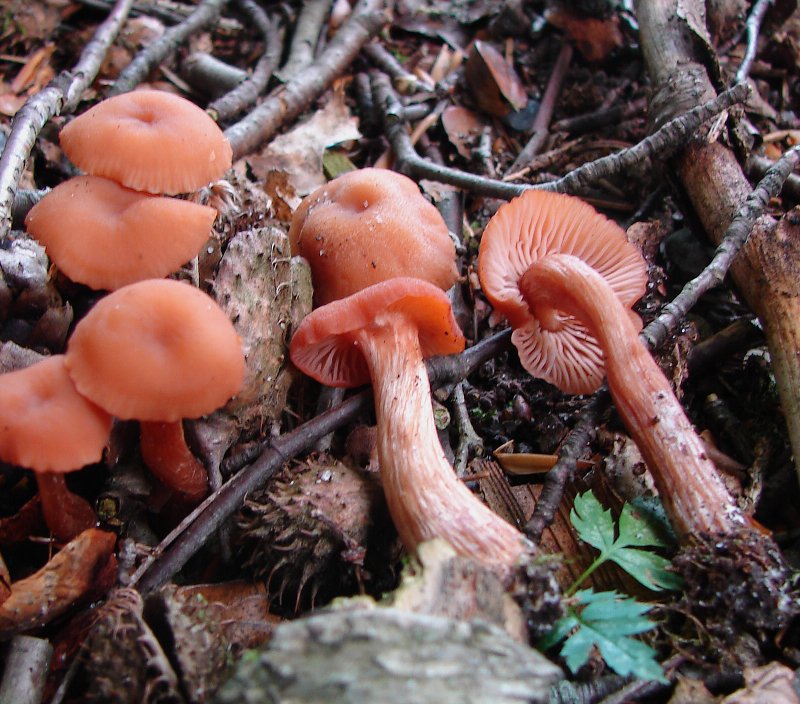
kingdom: Fungi
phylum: Basidiomycota
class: Agaricomycetes
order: Agaricales
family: Hydnangiaceae
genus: Laccaria
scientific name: Laccaria proxima
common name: stor ametysthat
